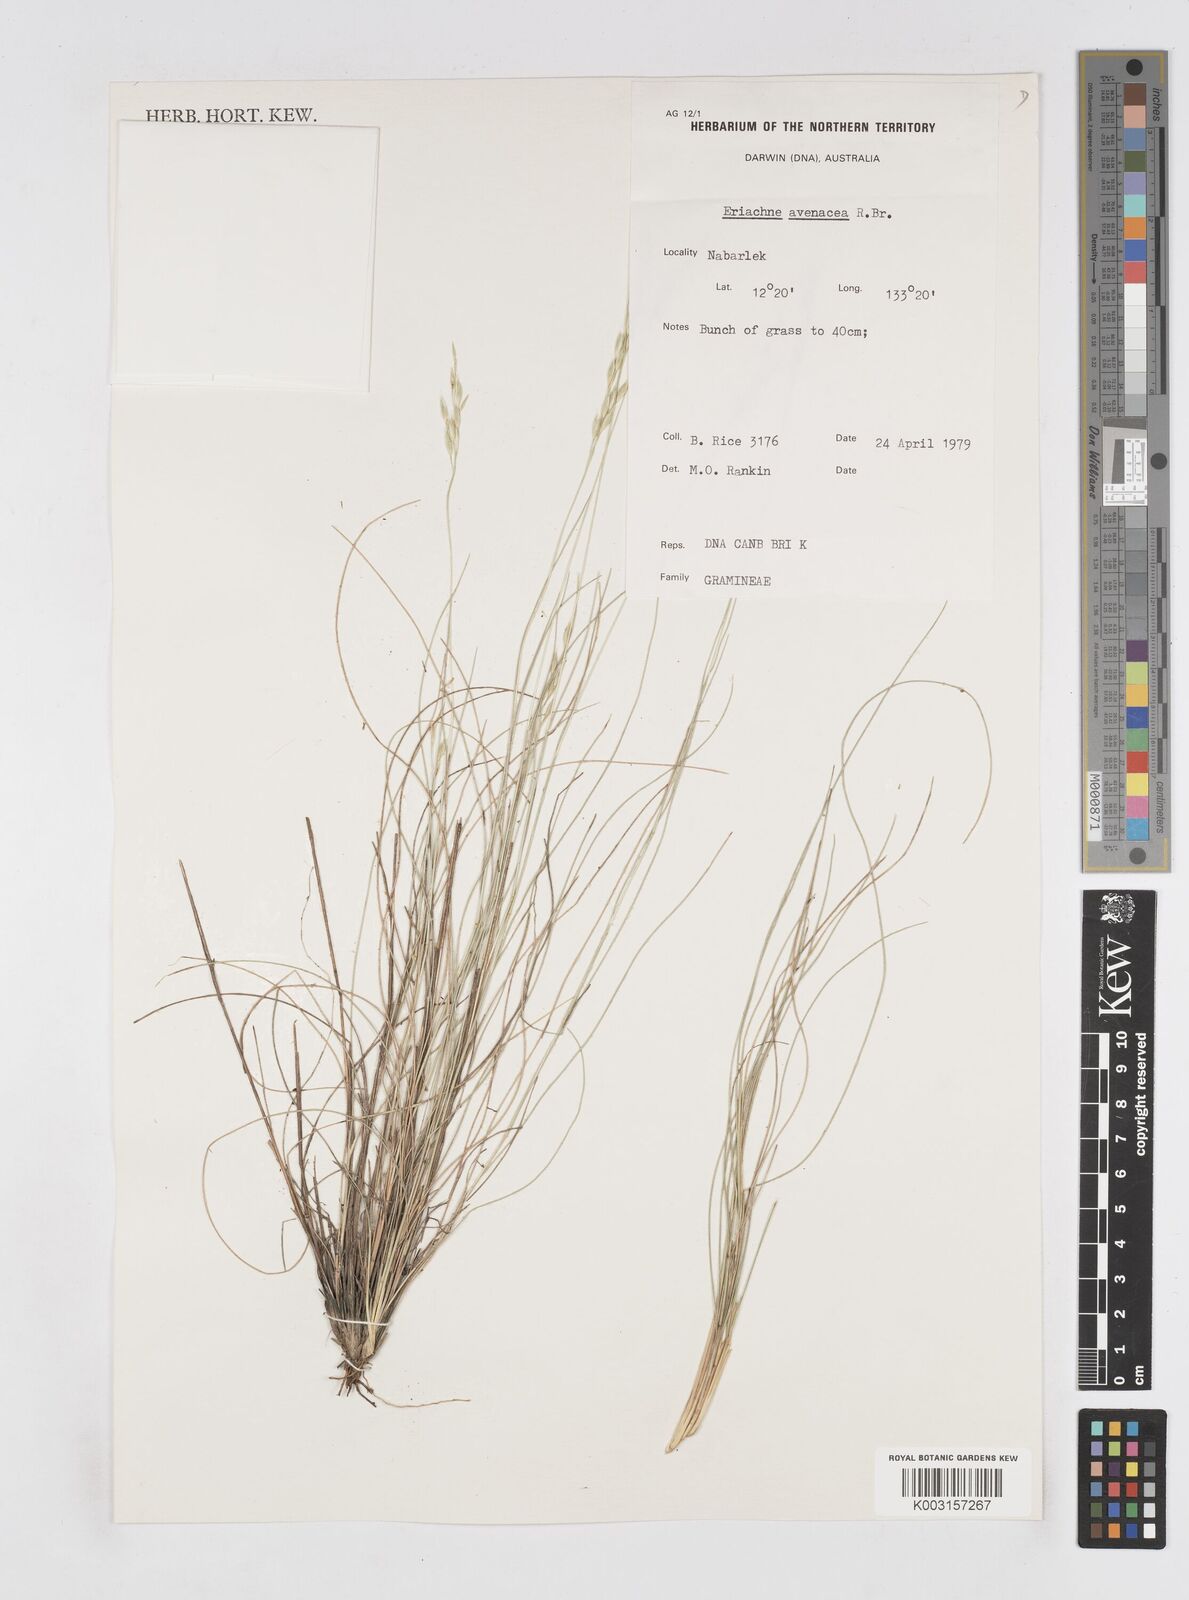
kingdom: Plantae
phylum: Tracheophyta
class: Liliopsida
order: Poales
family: Poaceae
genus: Eriachne
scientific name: Eriachne avenacea
